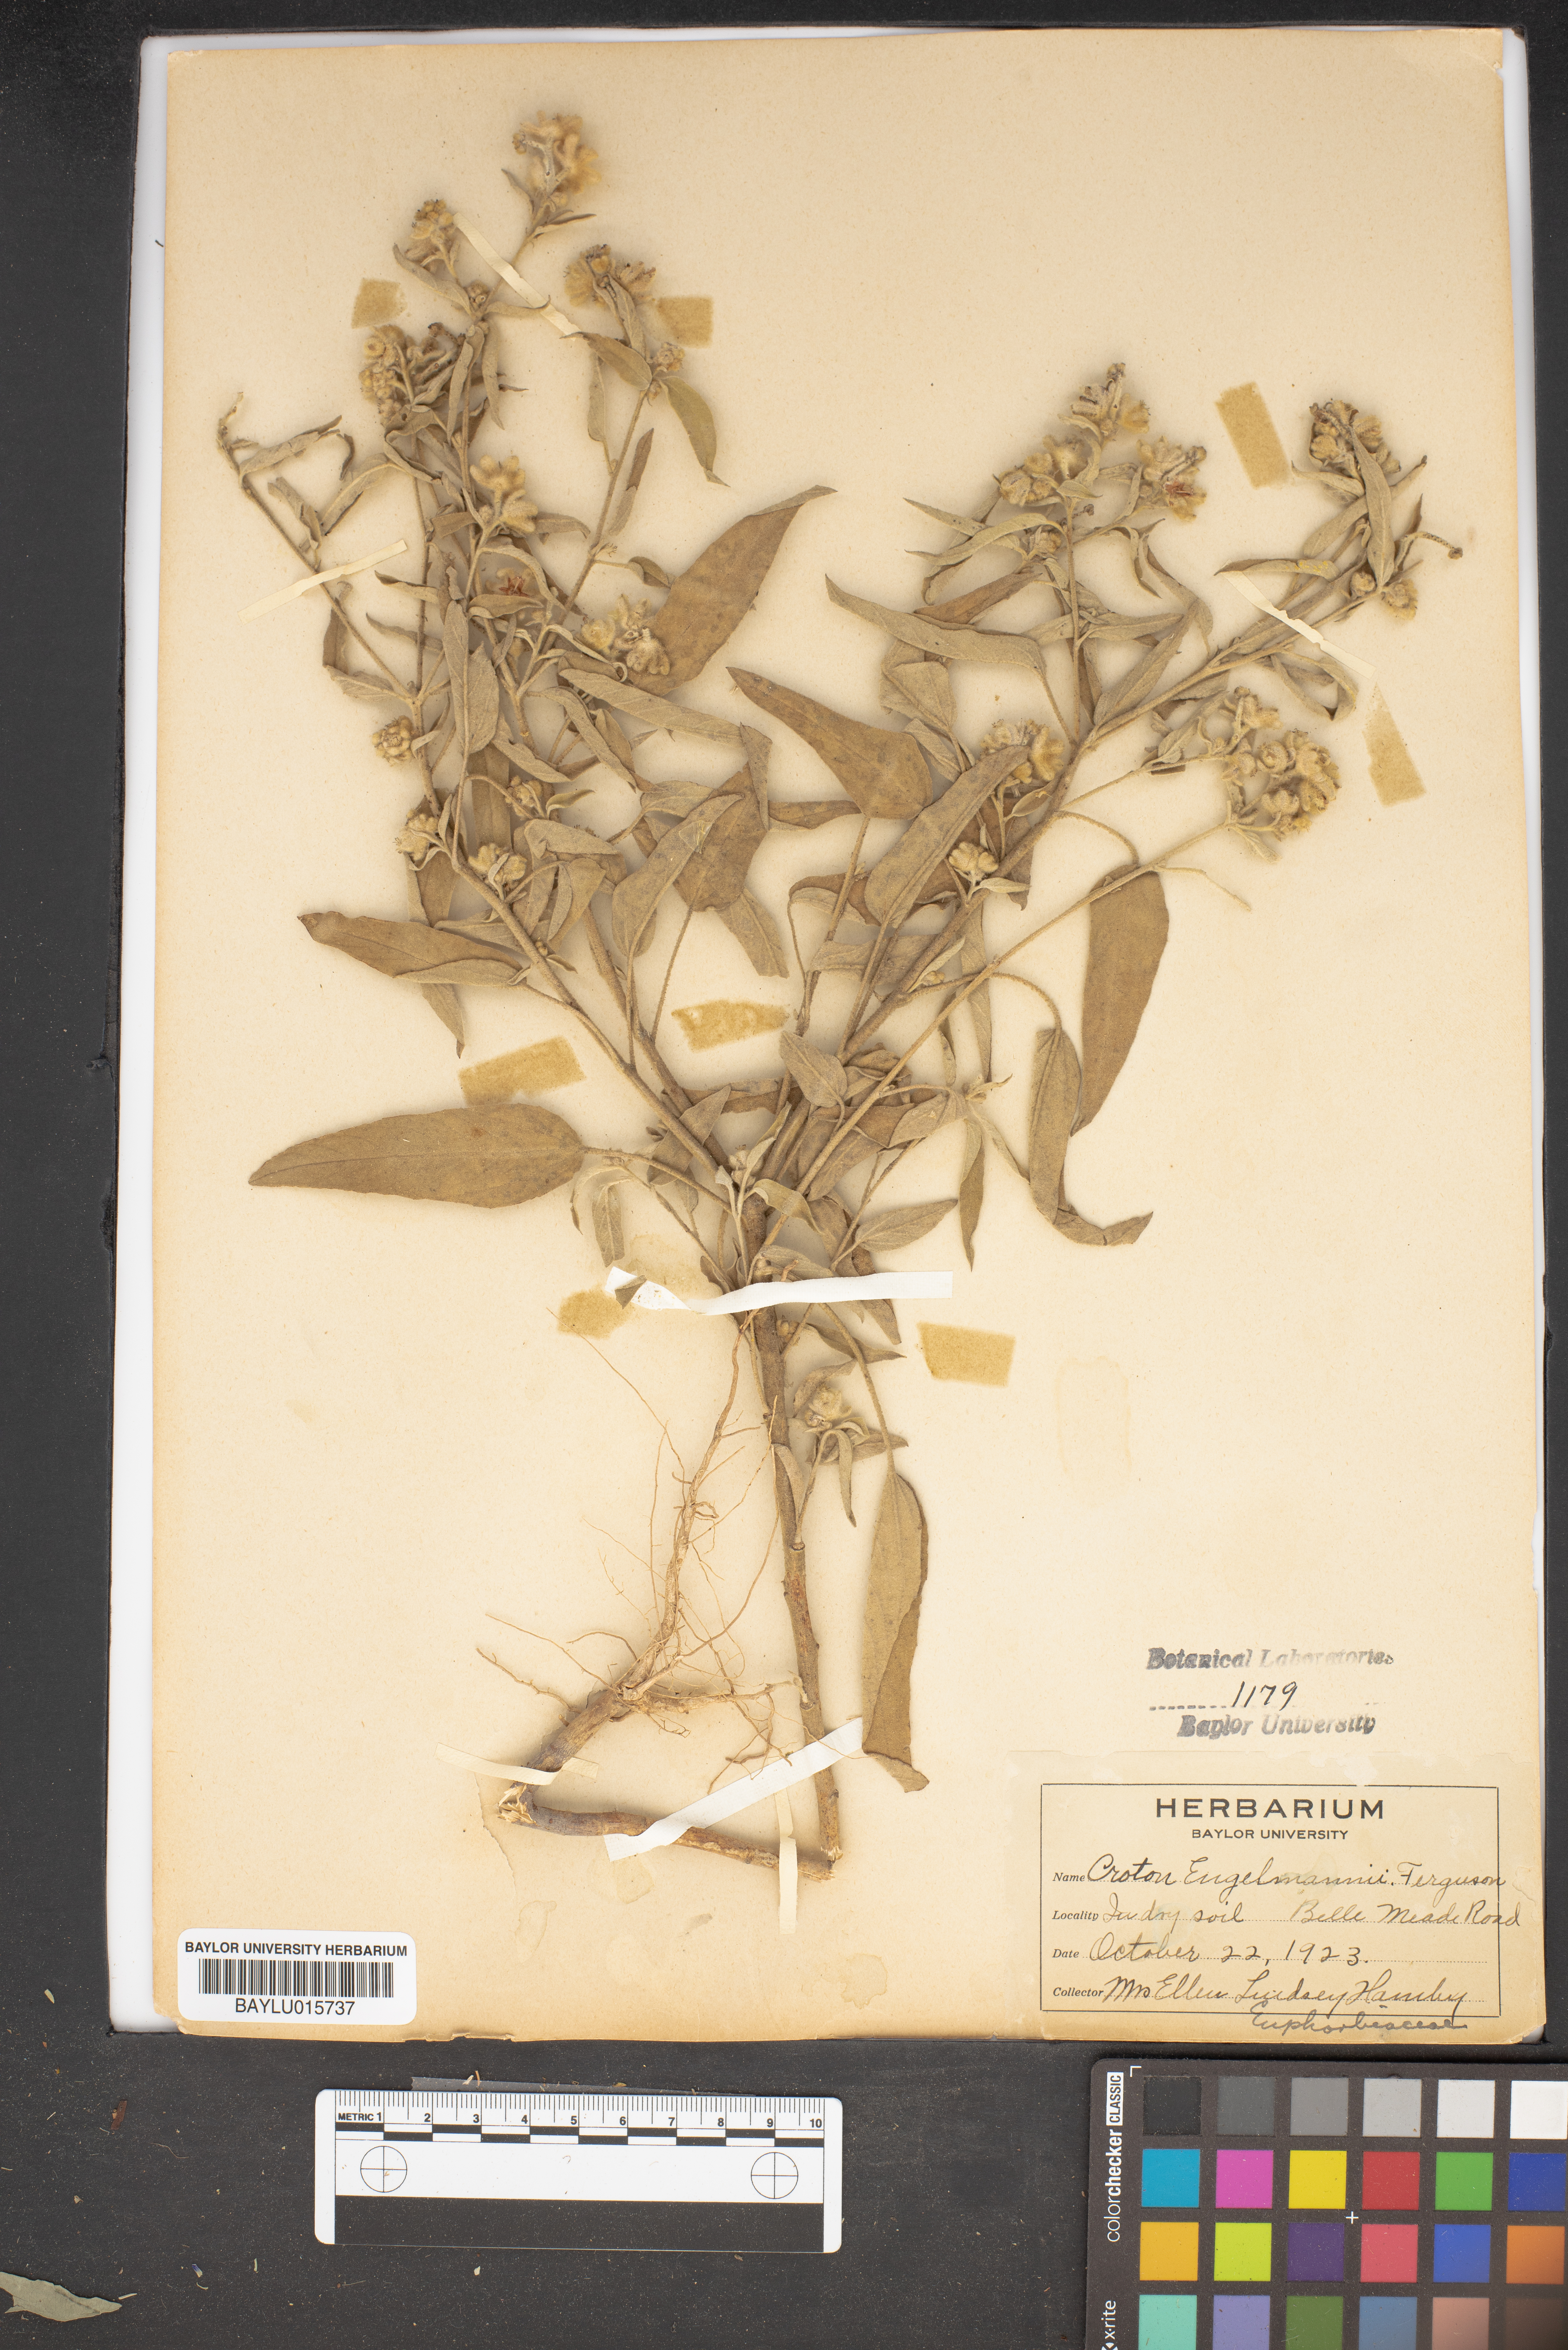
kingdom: Plantae
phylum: Tracheophyta
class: Magnoliopsida
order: Malpighiales
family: Euphorbiaceae
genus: Croton
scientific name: Croton lindheimeri
